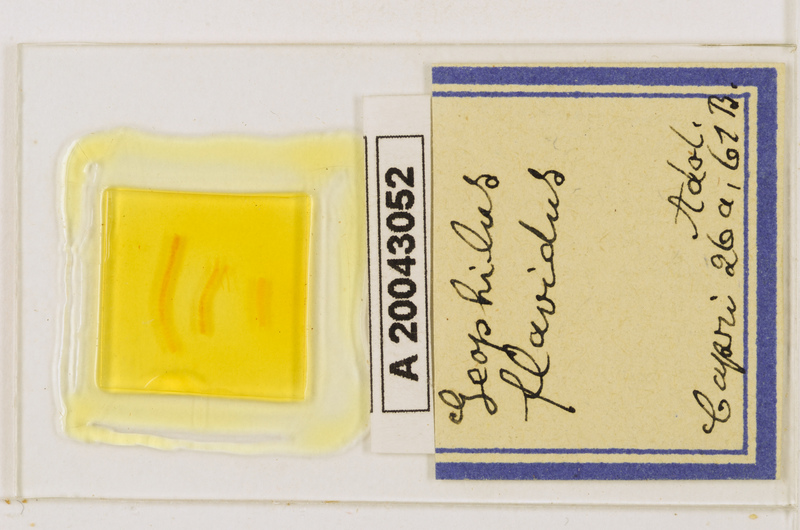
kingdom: Animalia
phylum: Arthropoda
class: Chilopoda
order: Geophilomorpha
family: Geophilidae
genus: Clinopodes
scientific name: Clinopodes flavidus
